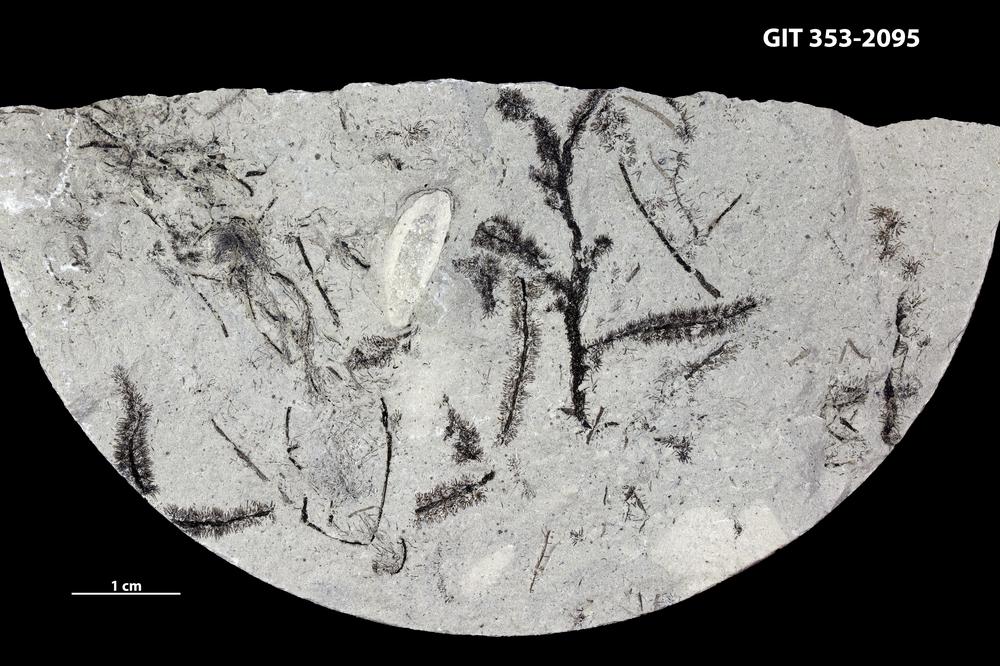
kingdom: Plantae
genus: Leveilleites
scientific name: Leveilleites hartnageli
